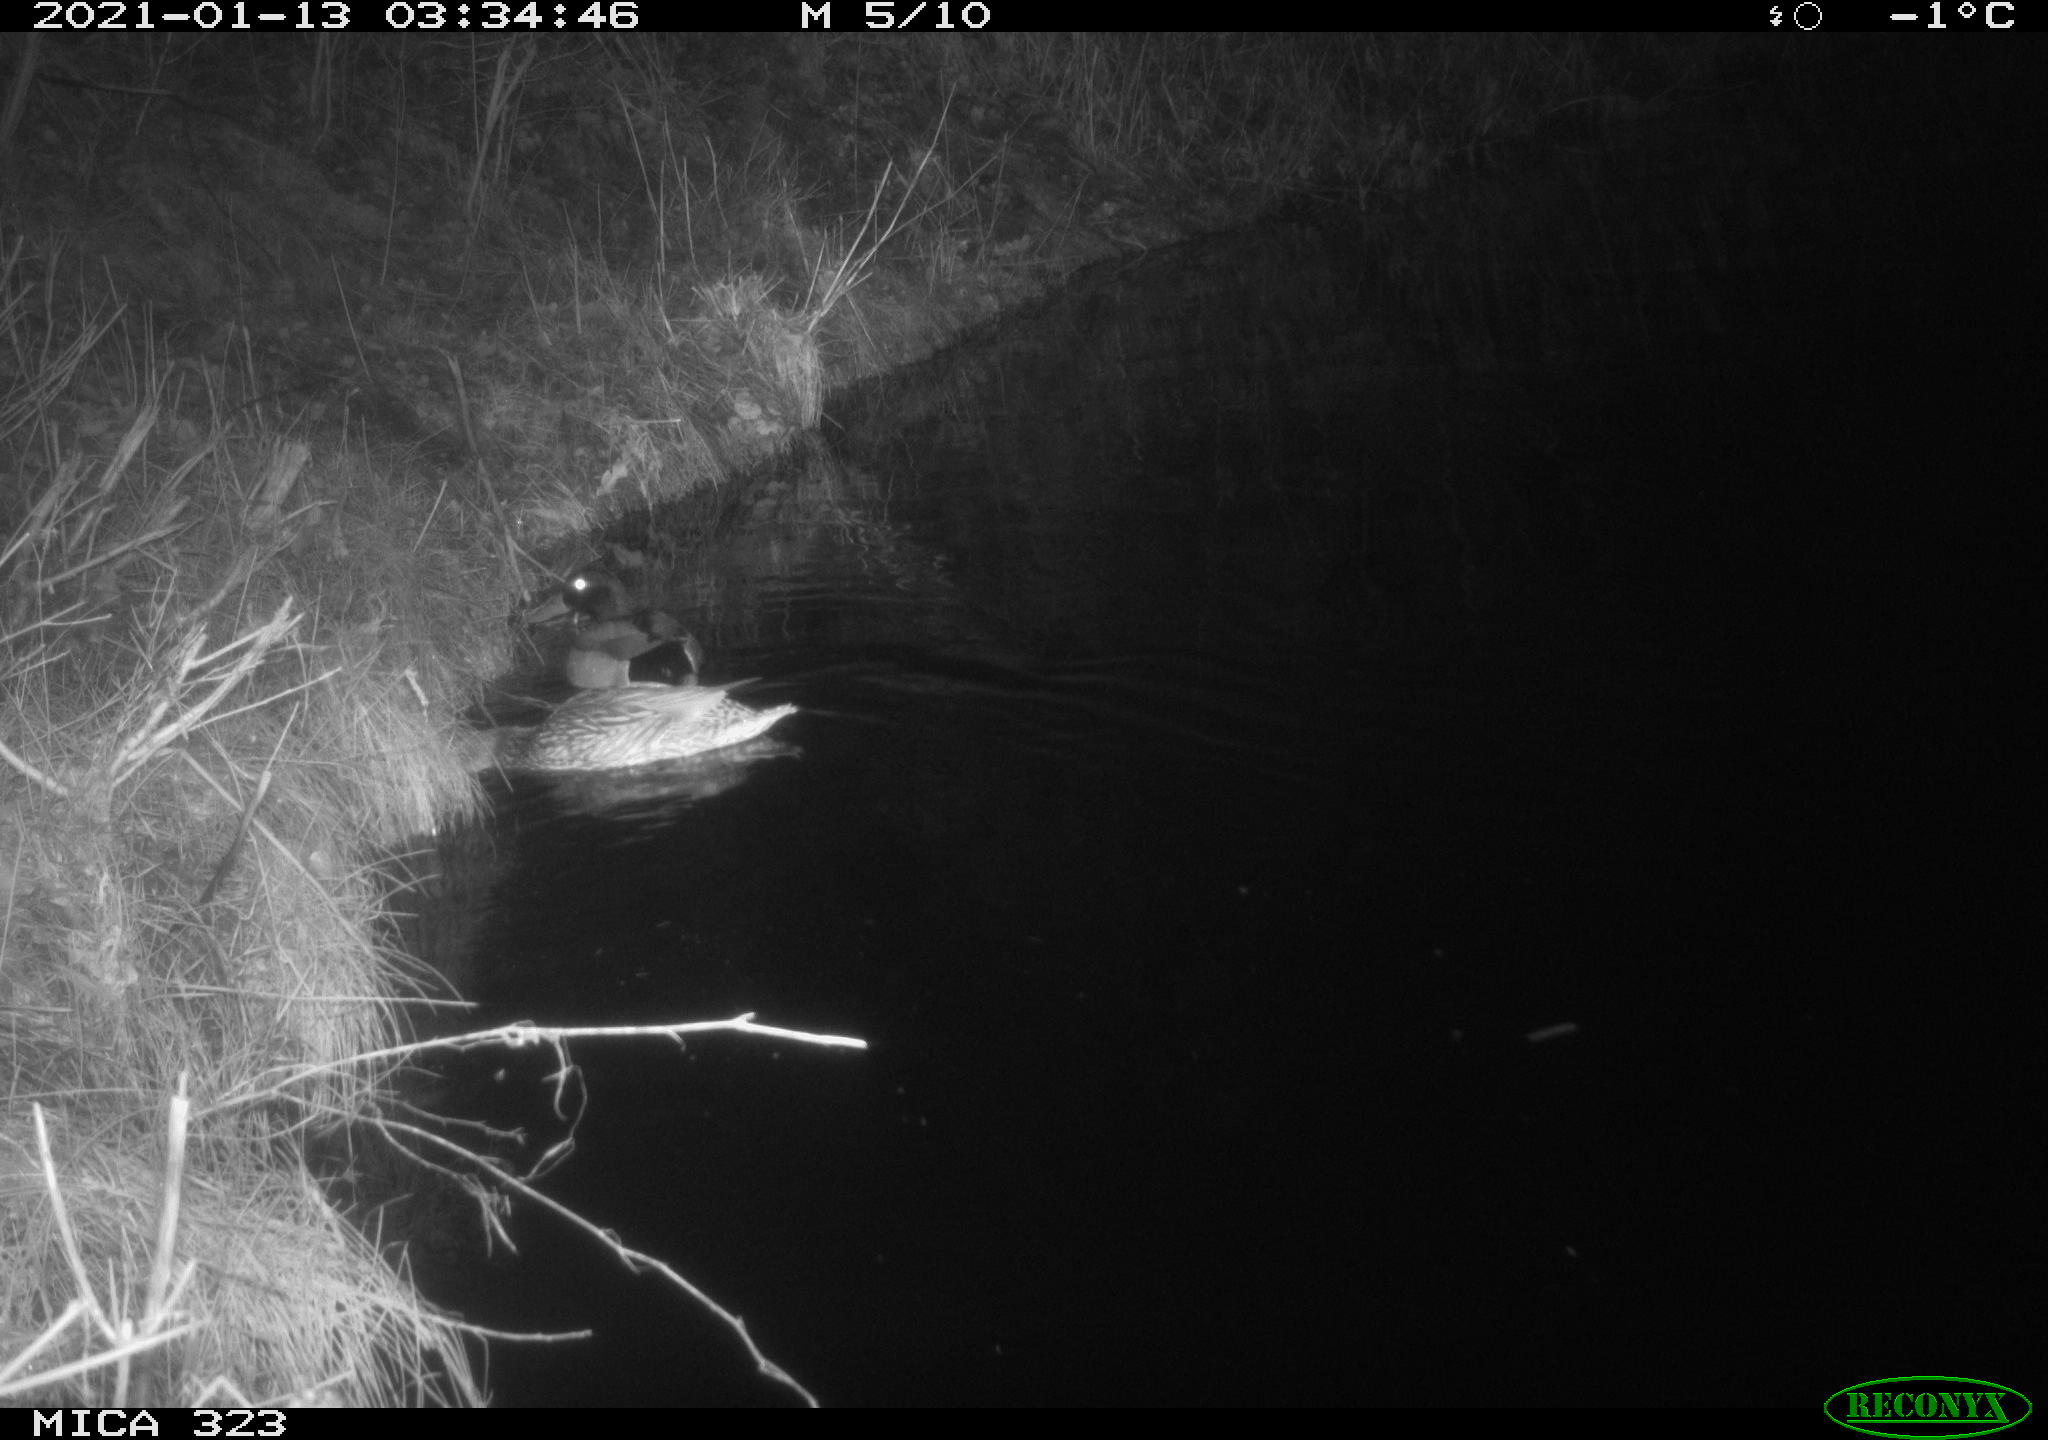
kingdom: Animalia
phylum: Chordata
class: Aves
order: Anseriformes
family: Anatidae
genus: Anas
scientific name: Anas platyrhynchos
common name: Mallard
